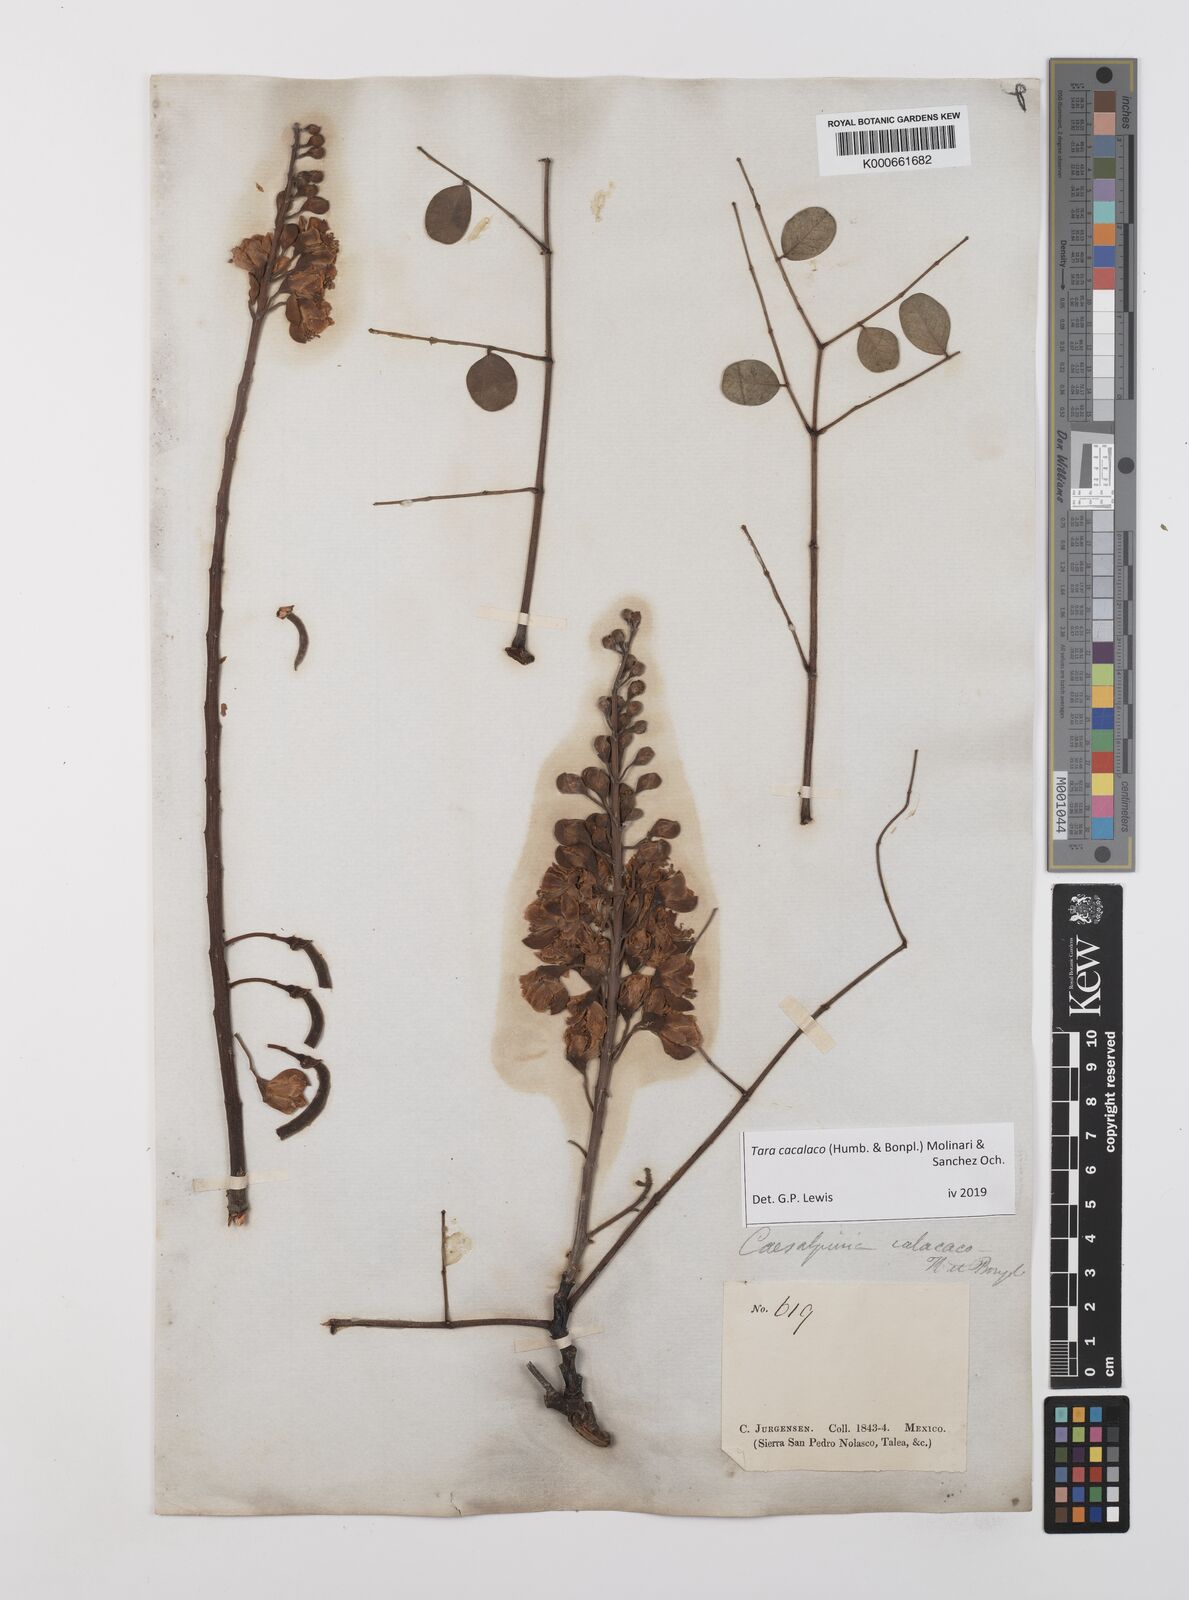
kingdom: Plantae
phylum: Tracheophyta
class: Magnoliopsida
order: Fabales
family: Fabaceae
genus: Tara
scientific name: Tara cacalaco
